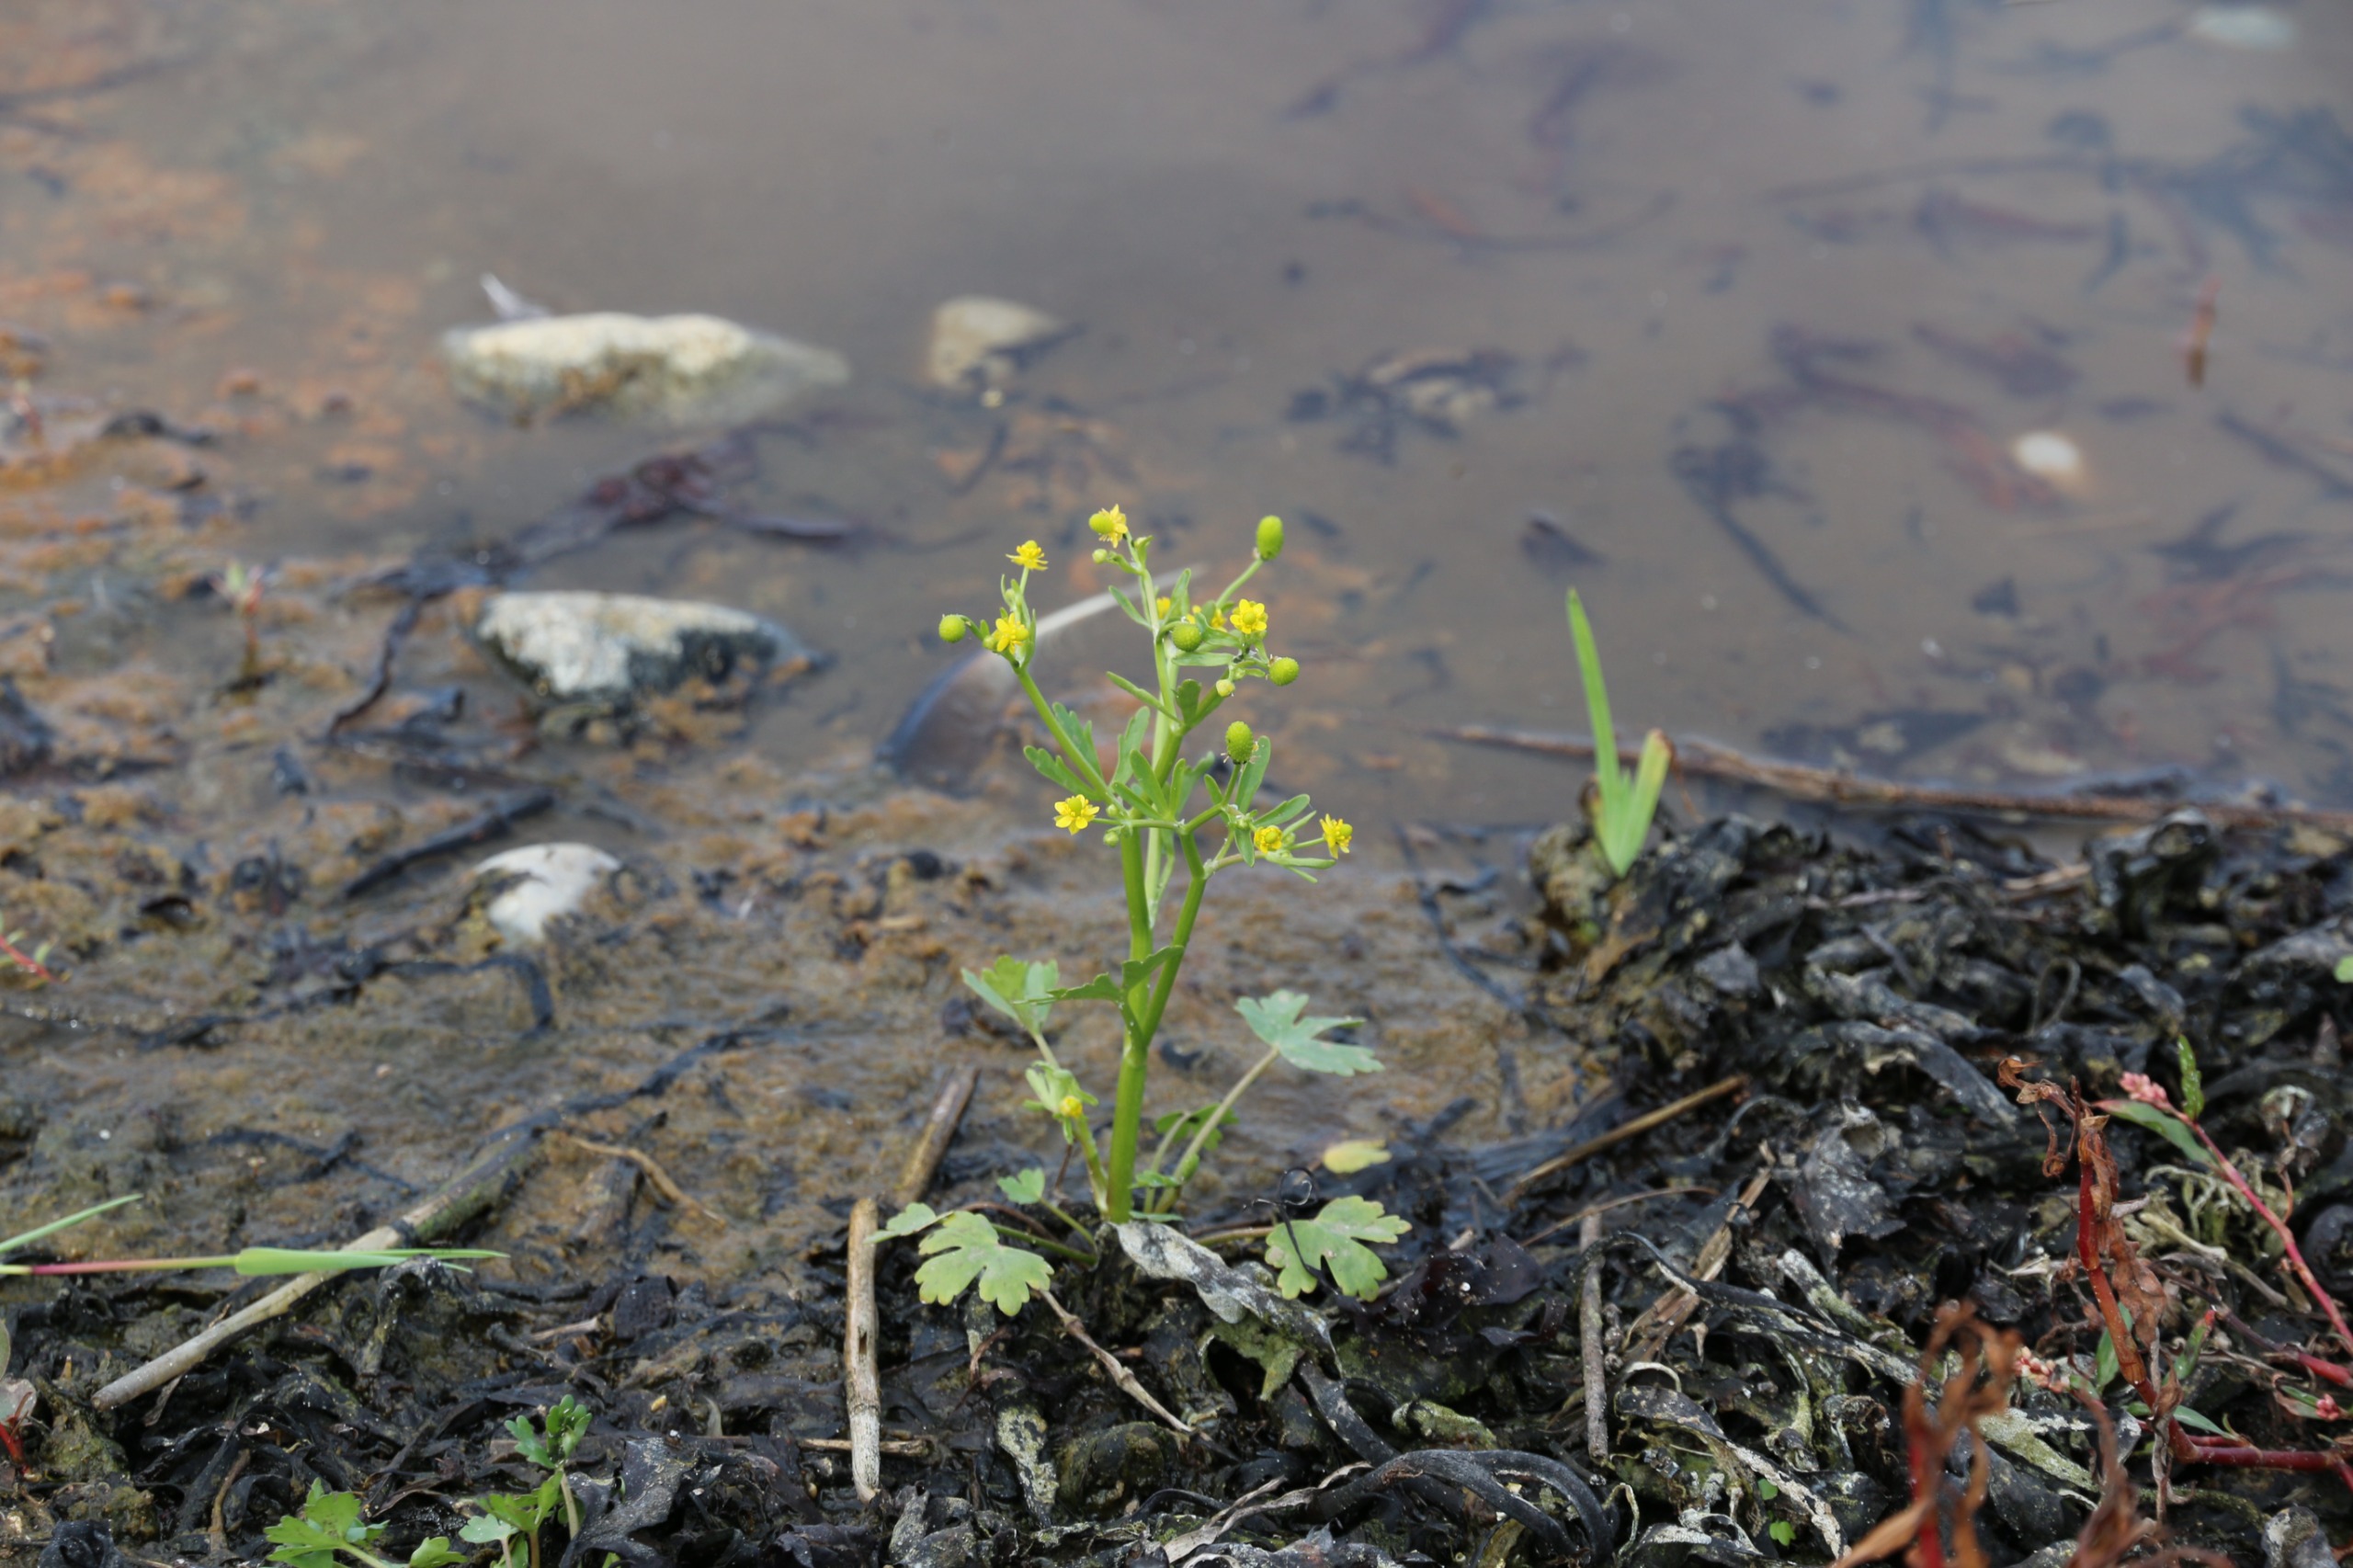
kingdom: Plantae
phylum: Tracheophyta
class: Magnoliopsida
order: Ranunculales
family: Ranunculaceae
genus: Ranunculus
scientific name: Ranunculus sceleratus
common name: Tigger-ranunkel
